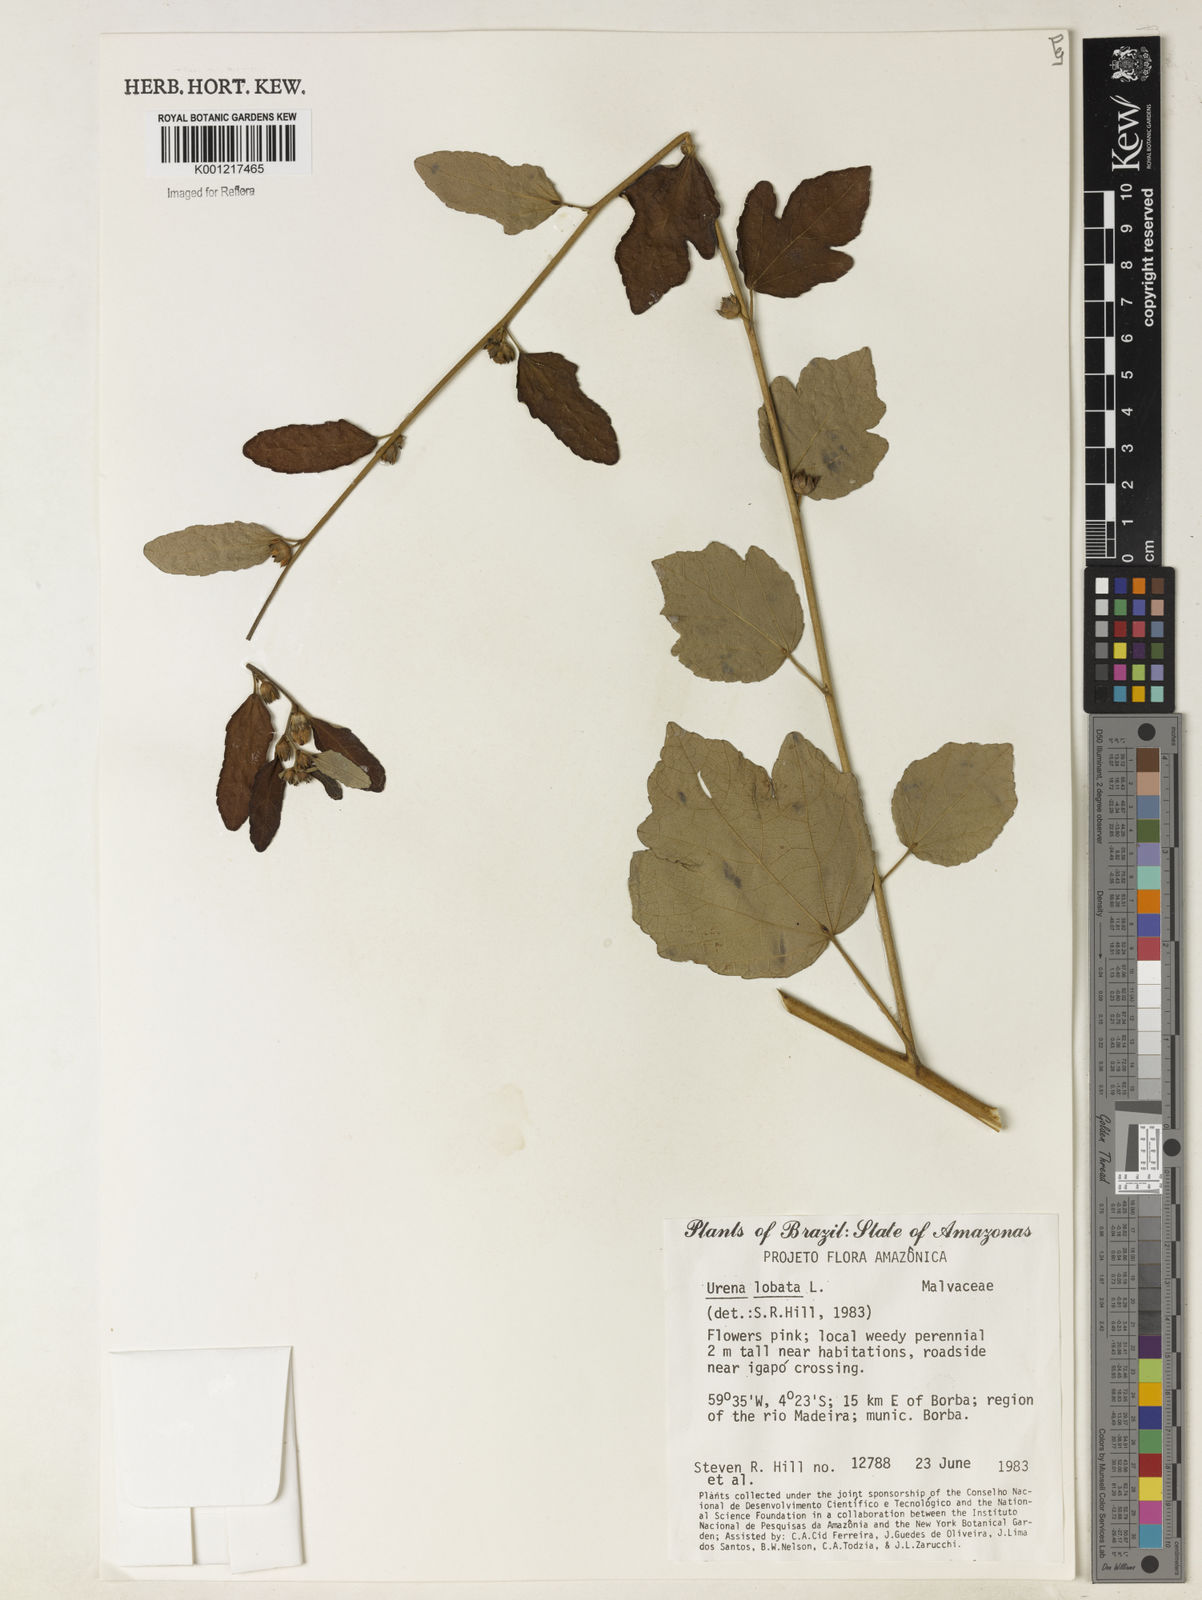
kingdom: Plantae
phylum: Tracheophyta
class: Magnoliopsida
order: Malvales
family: Malvaceae
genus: Urena
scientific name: Urena lobata
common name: Caesarweed
